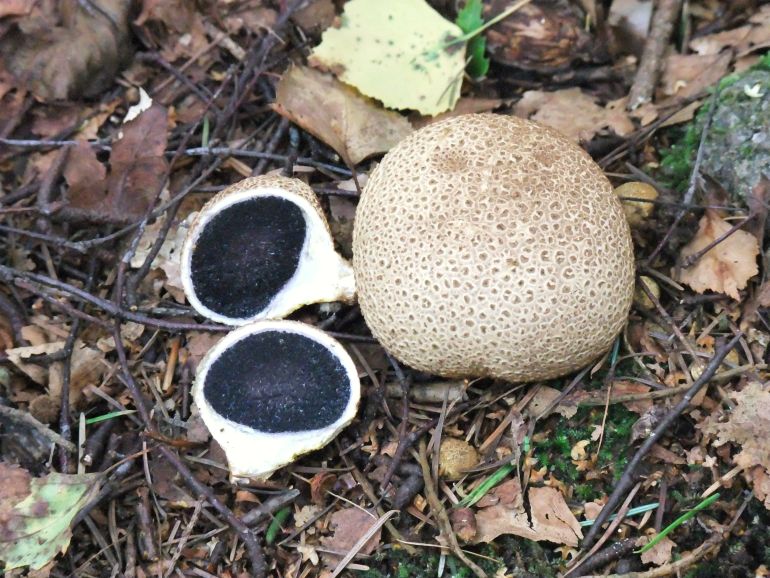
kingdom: Fungi
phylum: Basidiomycota
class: Agaricomycetes
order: Boletales
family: Sclerodermataceae
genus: Scleroderma
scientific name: Scleroderma citrinum
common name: almindelig bruskbold
